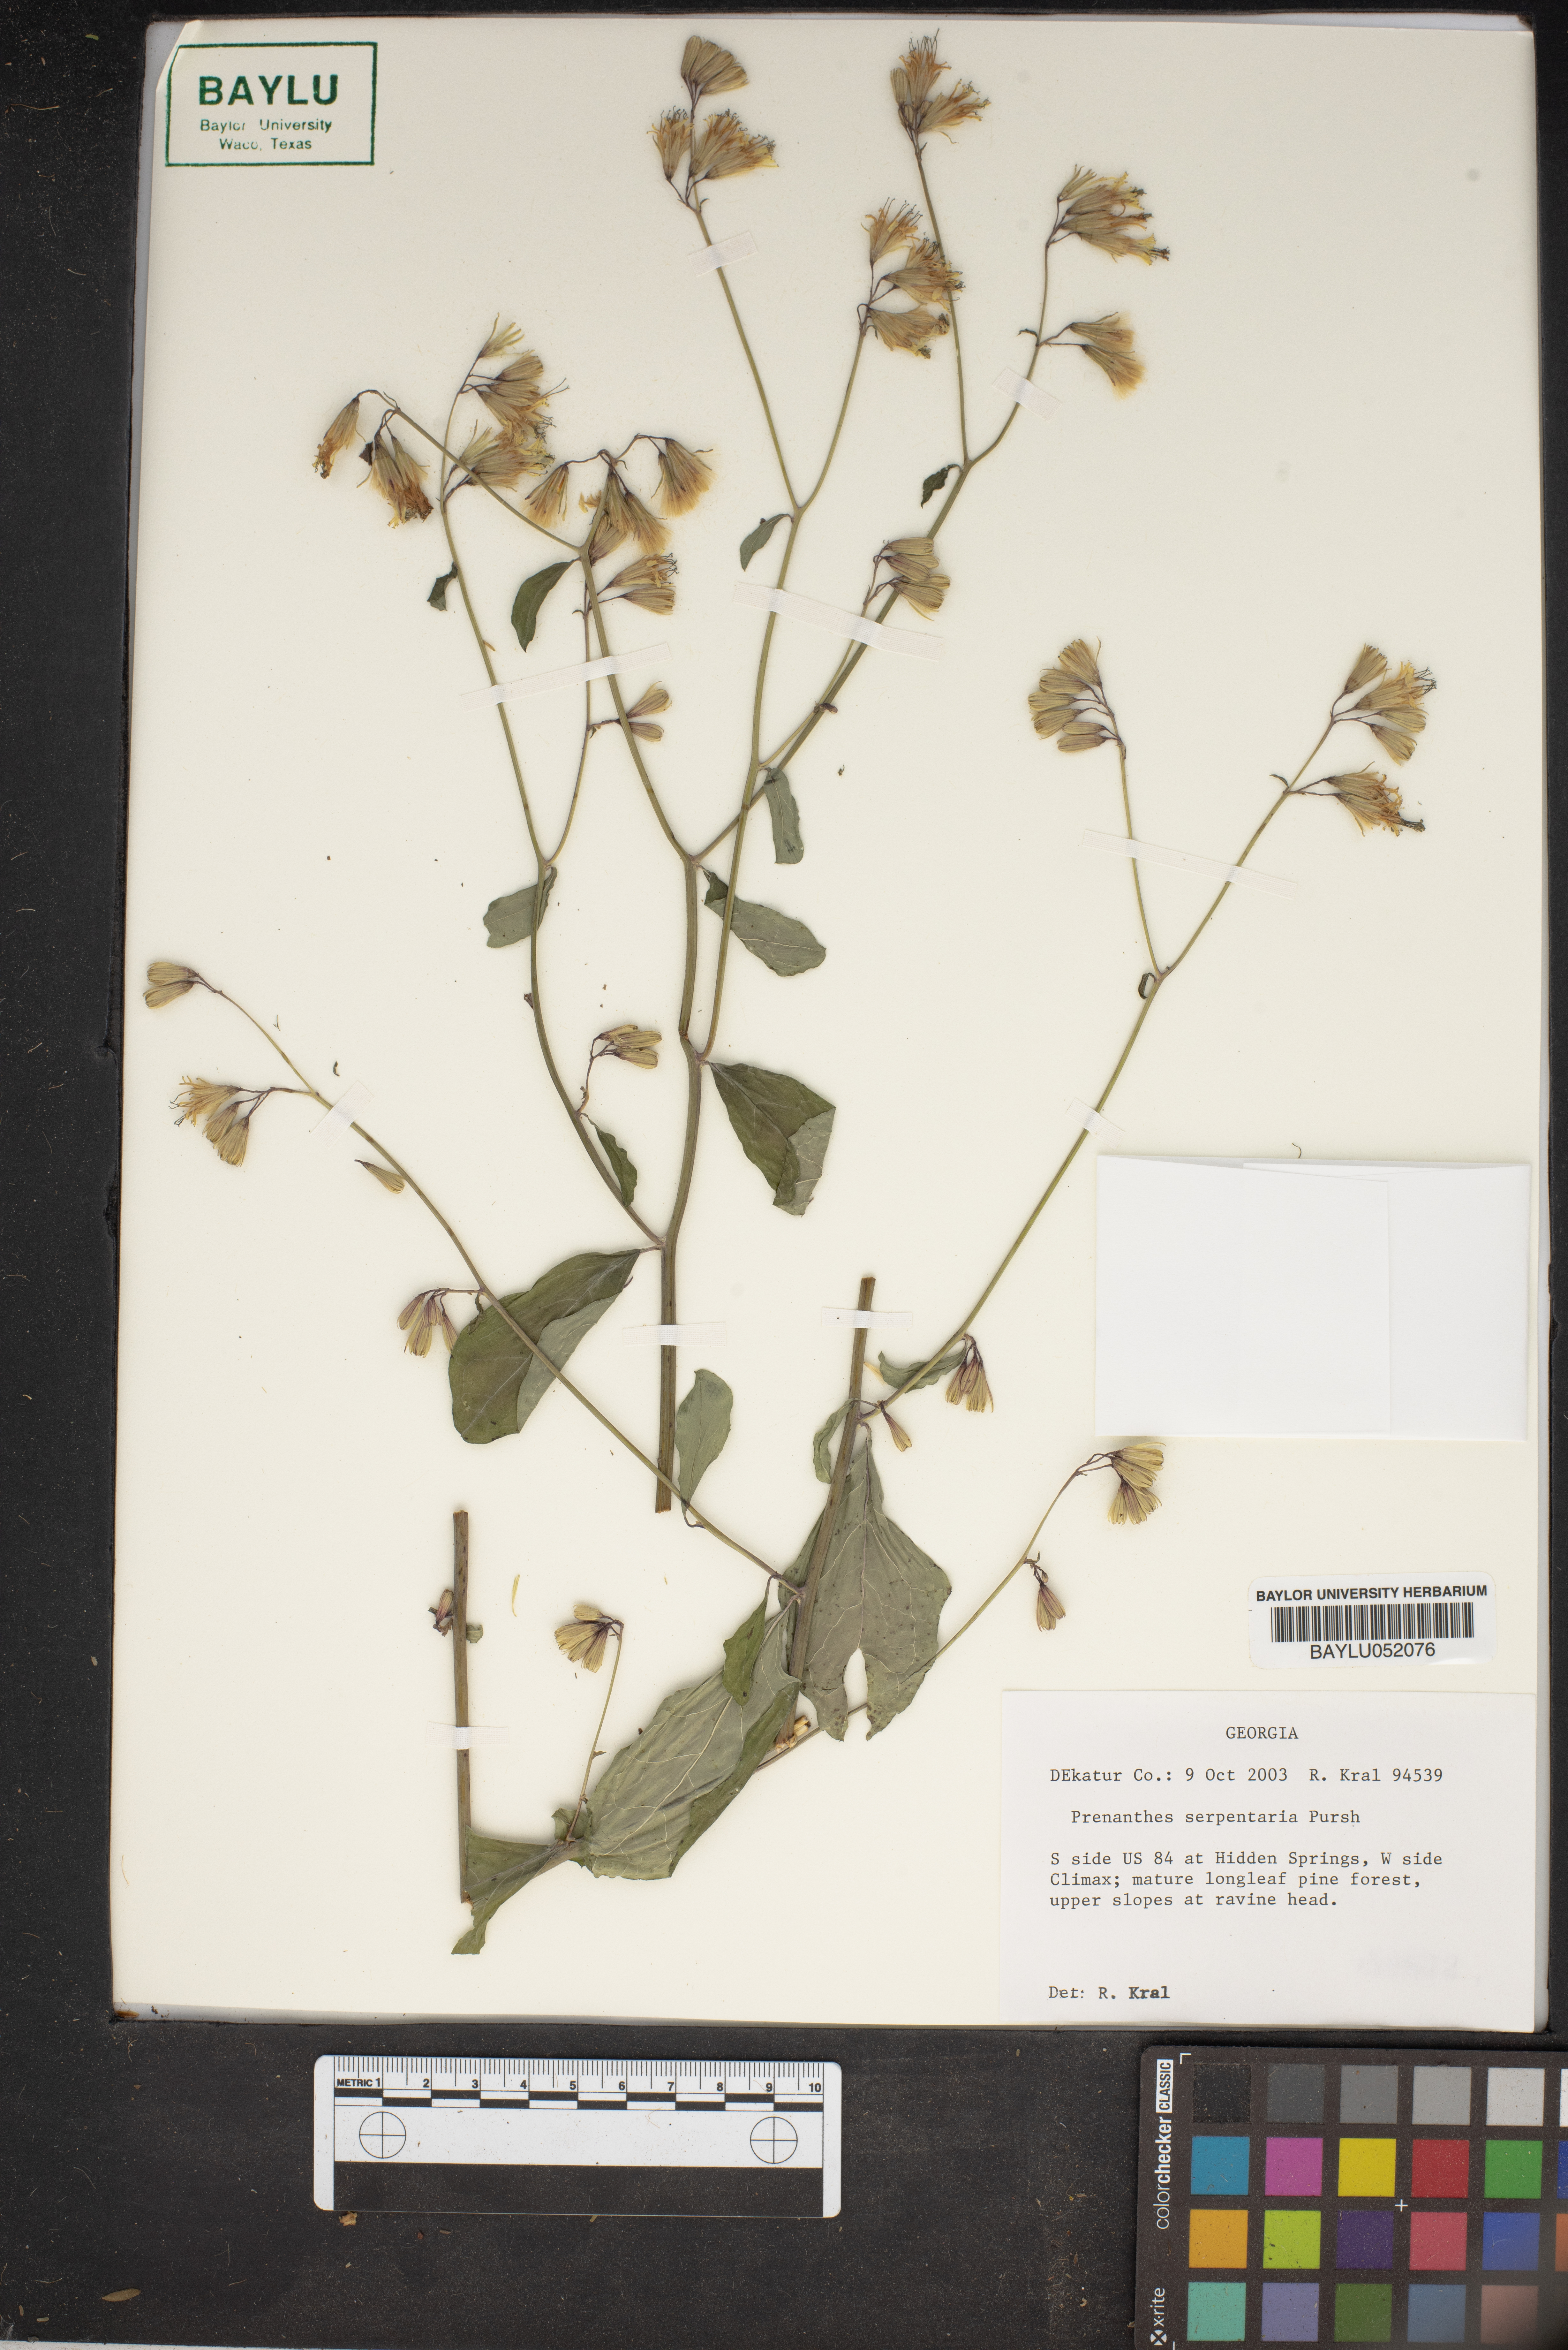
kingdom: Plantae
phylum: Tracheophyta
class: Magnoliopsida
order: Asterales
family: Asteraceae
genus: Nabalus
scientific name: Nabalus serpentarius
